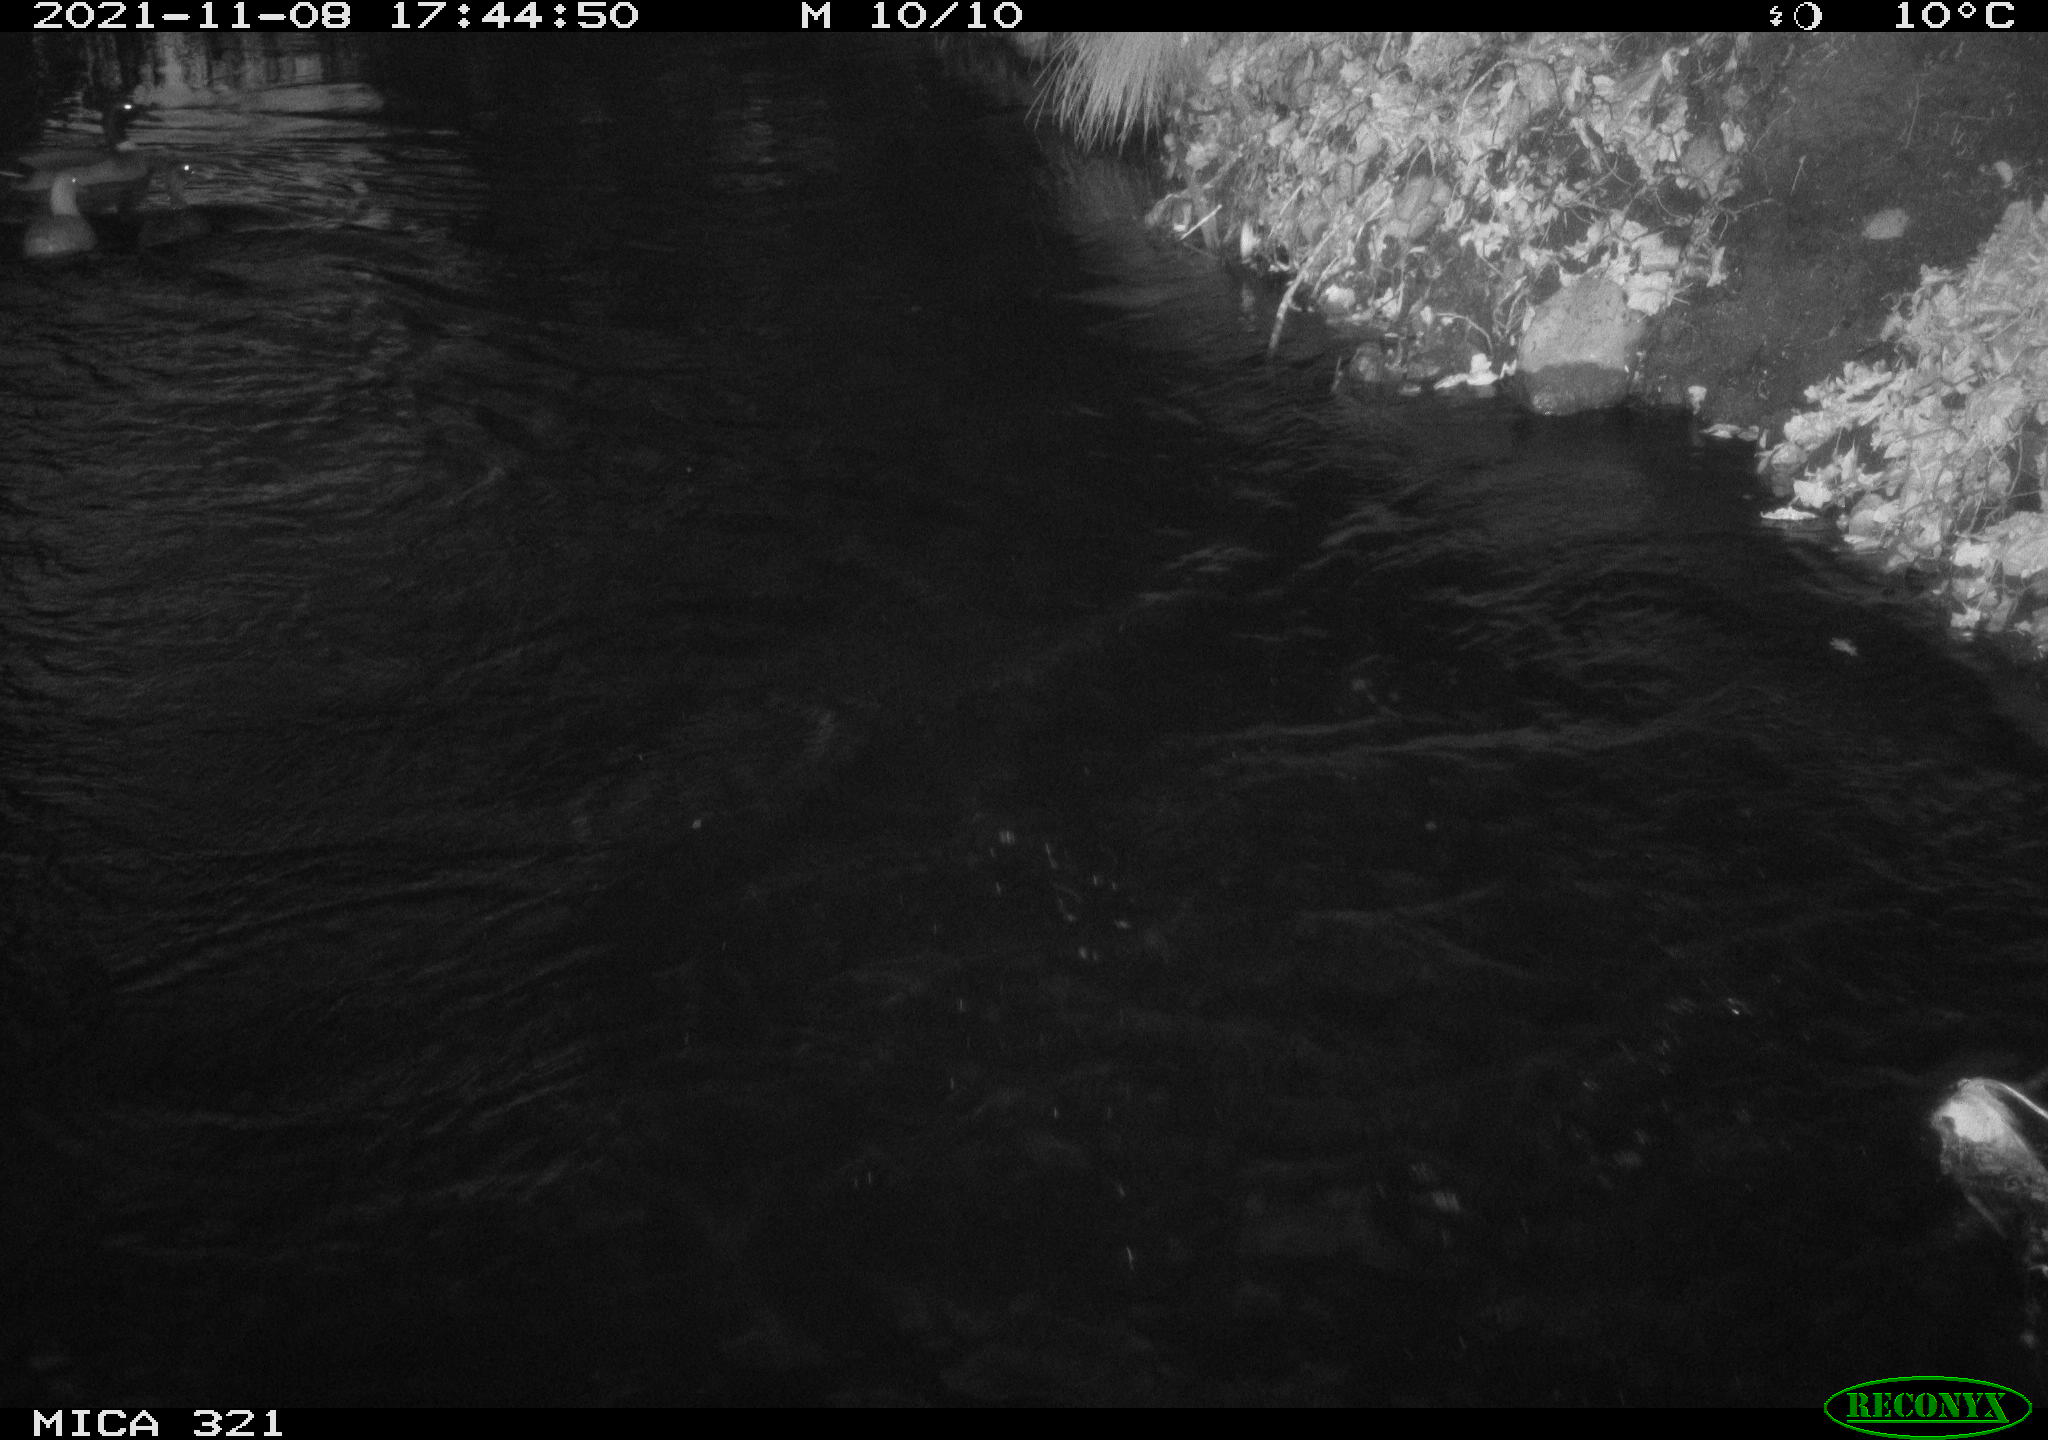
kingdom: Animalia
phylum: Chordata
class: Aves
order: Anseriformes
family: Anatidae
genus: Anas
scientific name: Anas platyrhynchos
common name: Mallard
